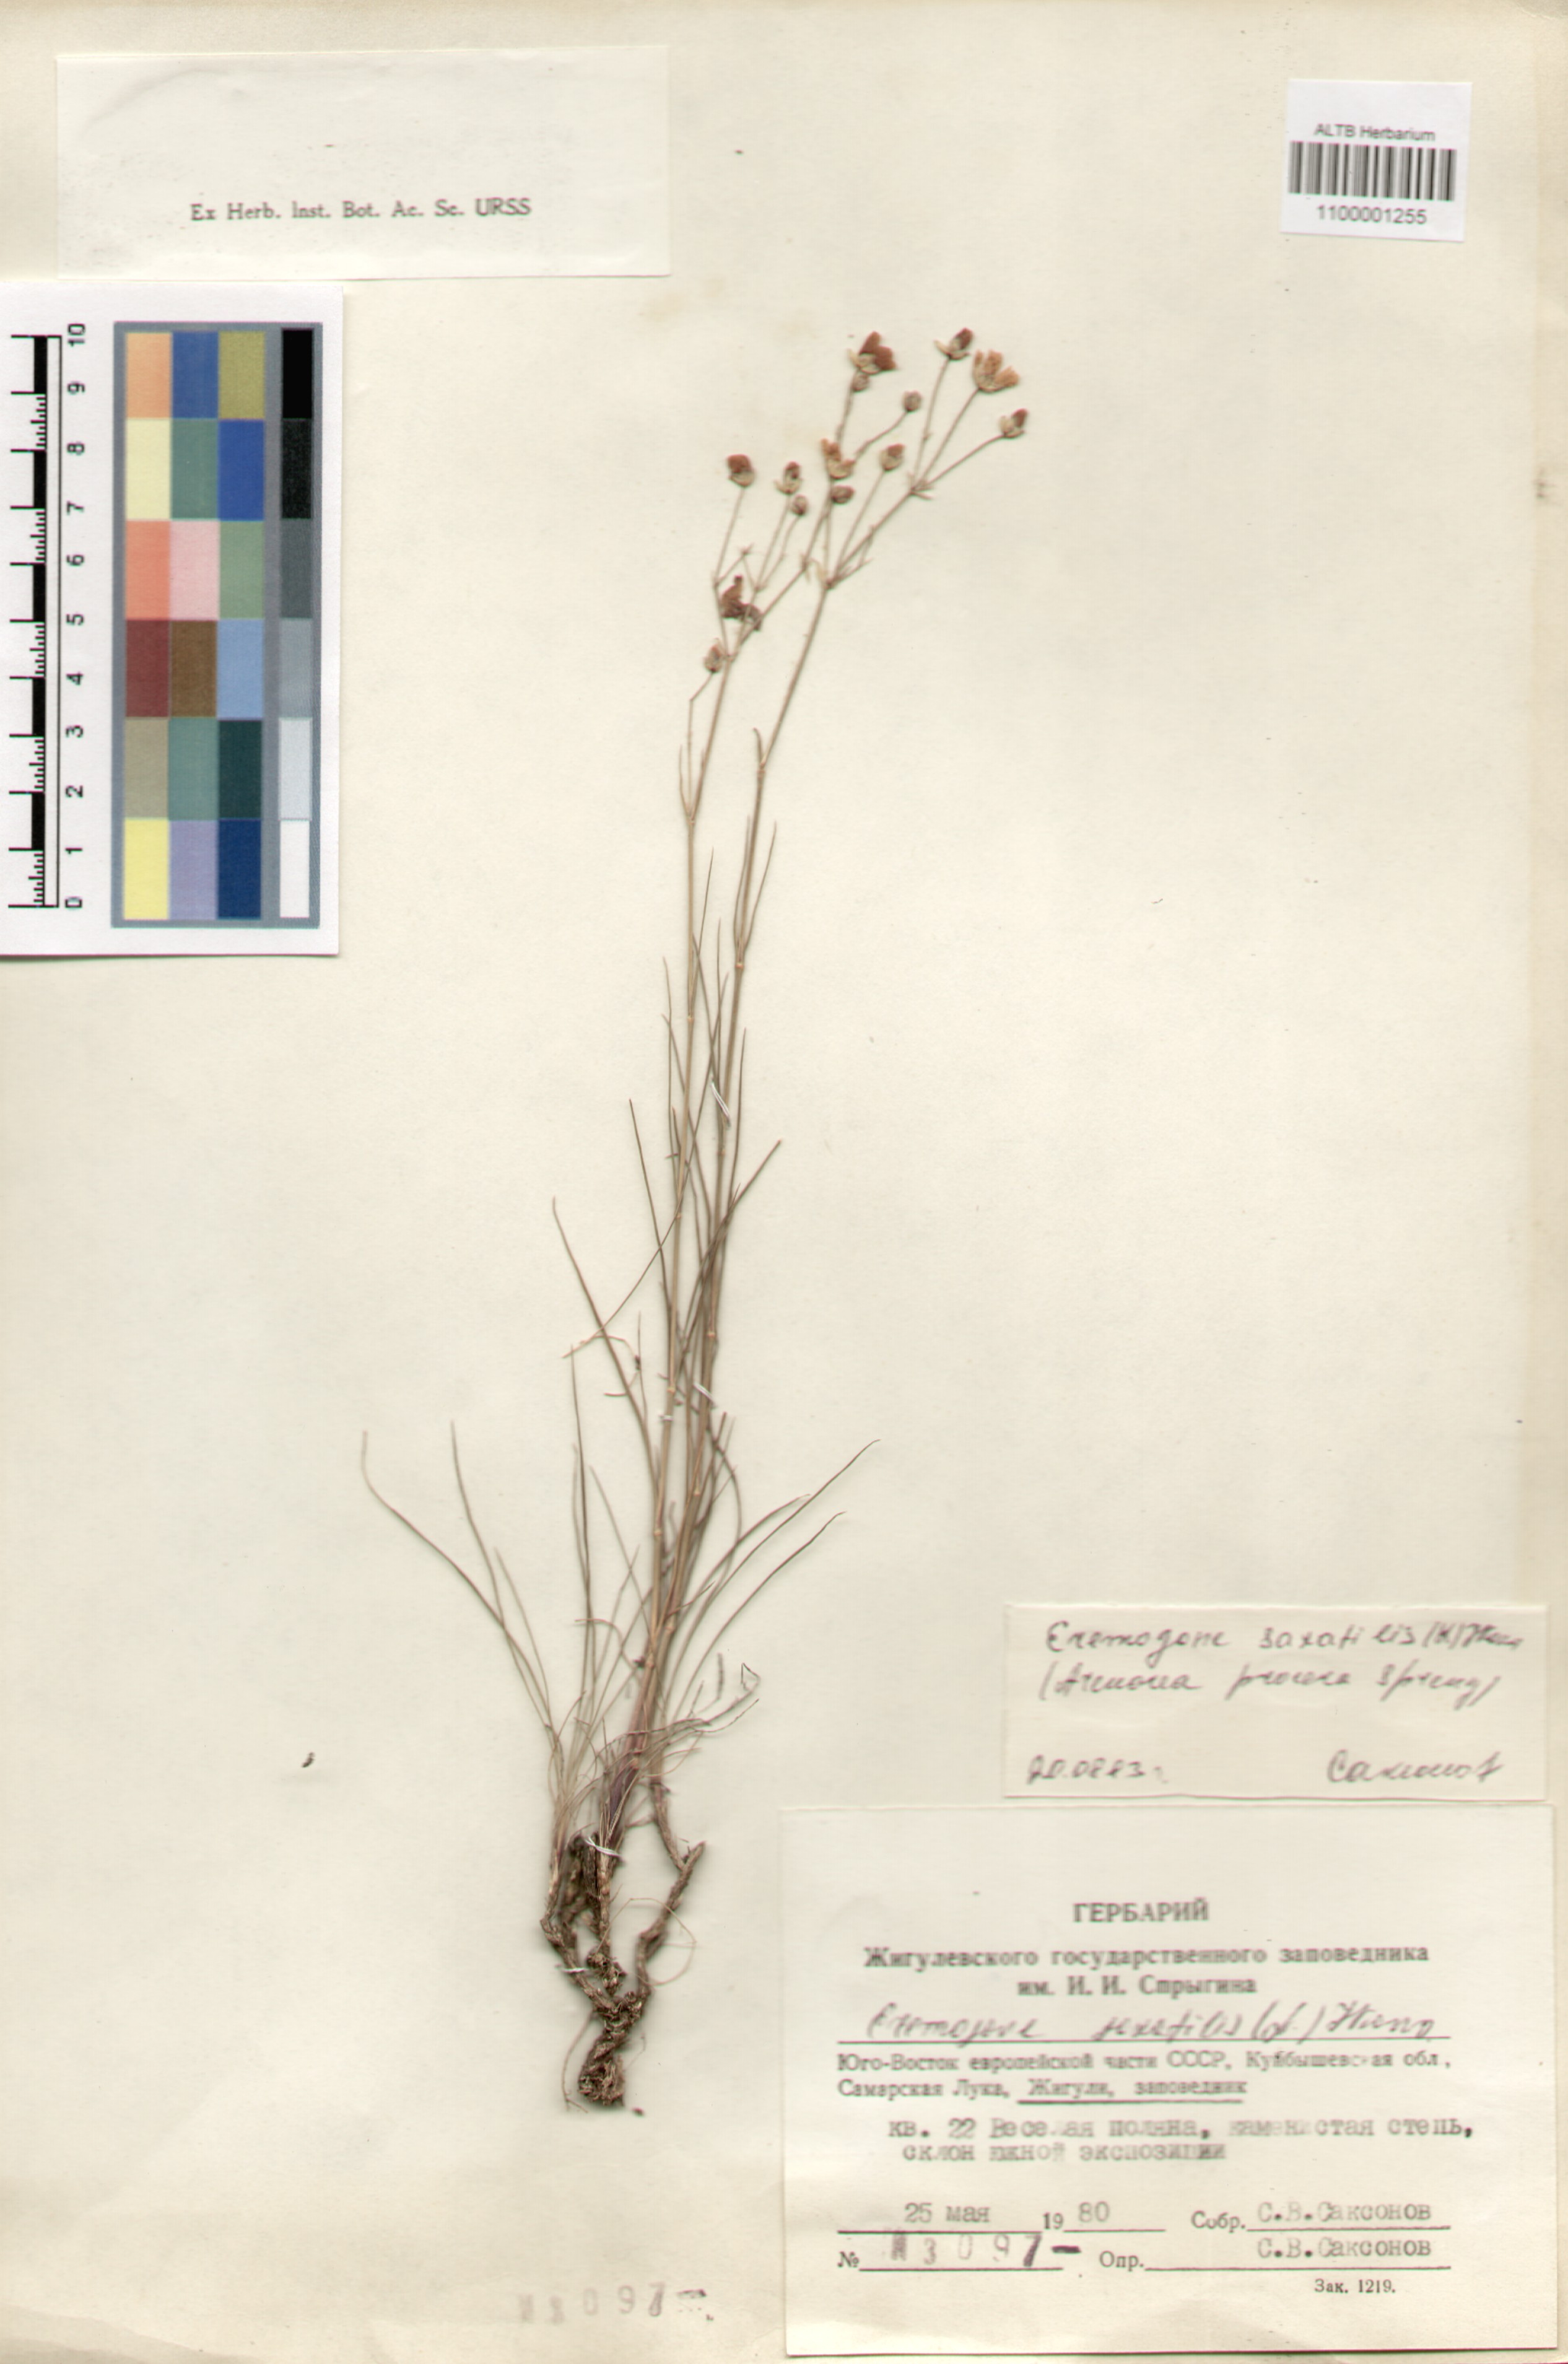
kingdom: Plantae
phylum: Tracheophyta
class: Magnoliopsida
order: Caryophyllales
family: Caryophyllaceae
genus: Eremogone
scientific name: Eremogone saxatilis
